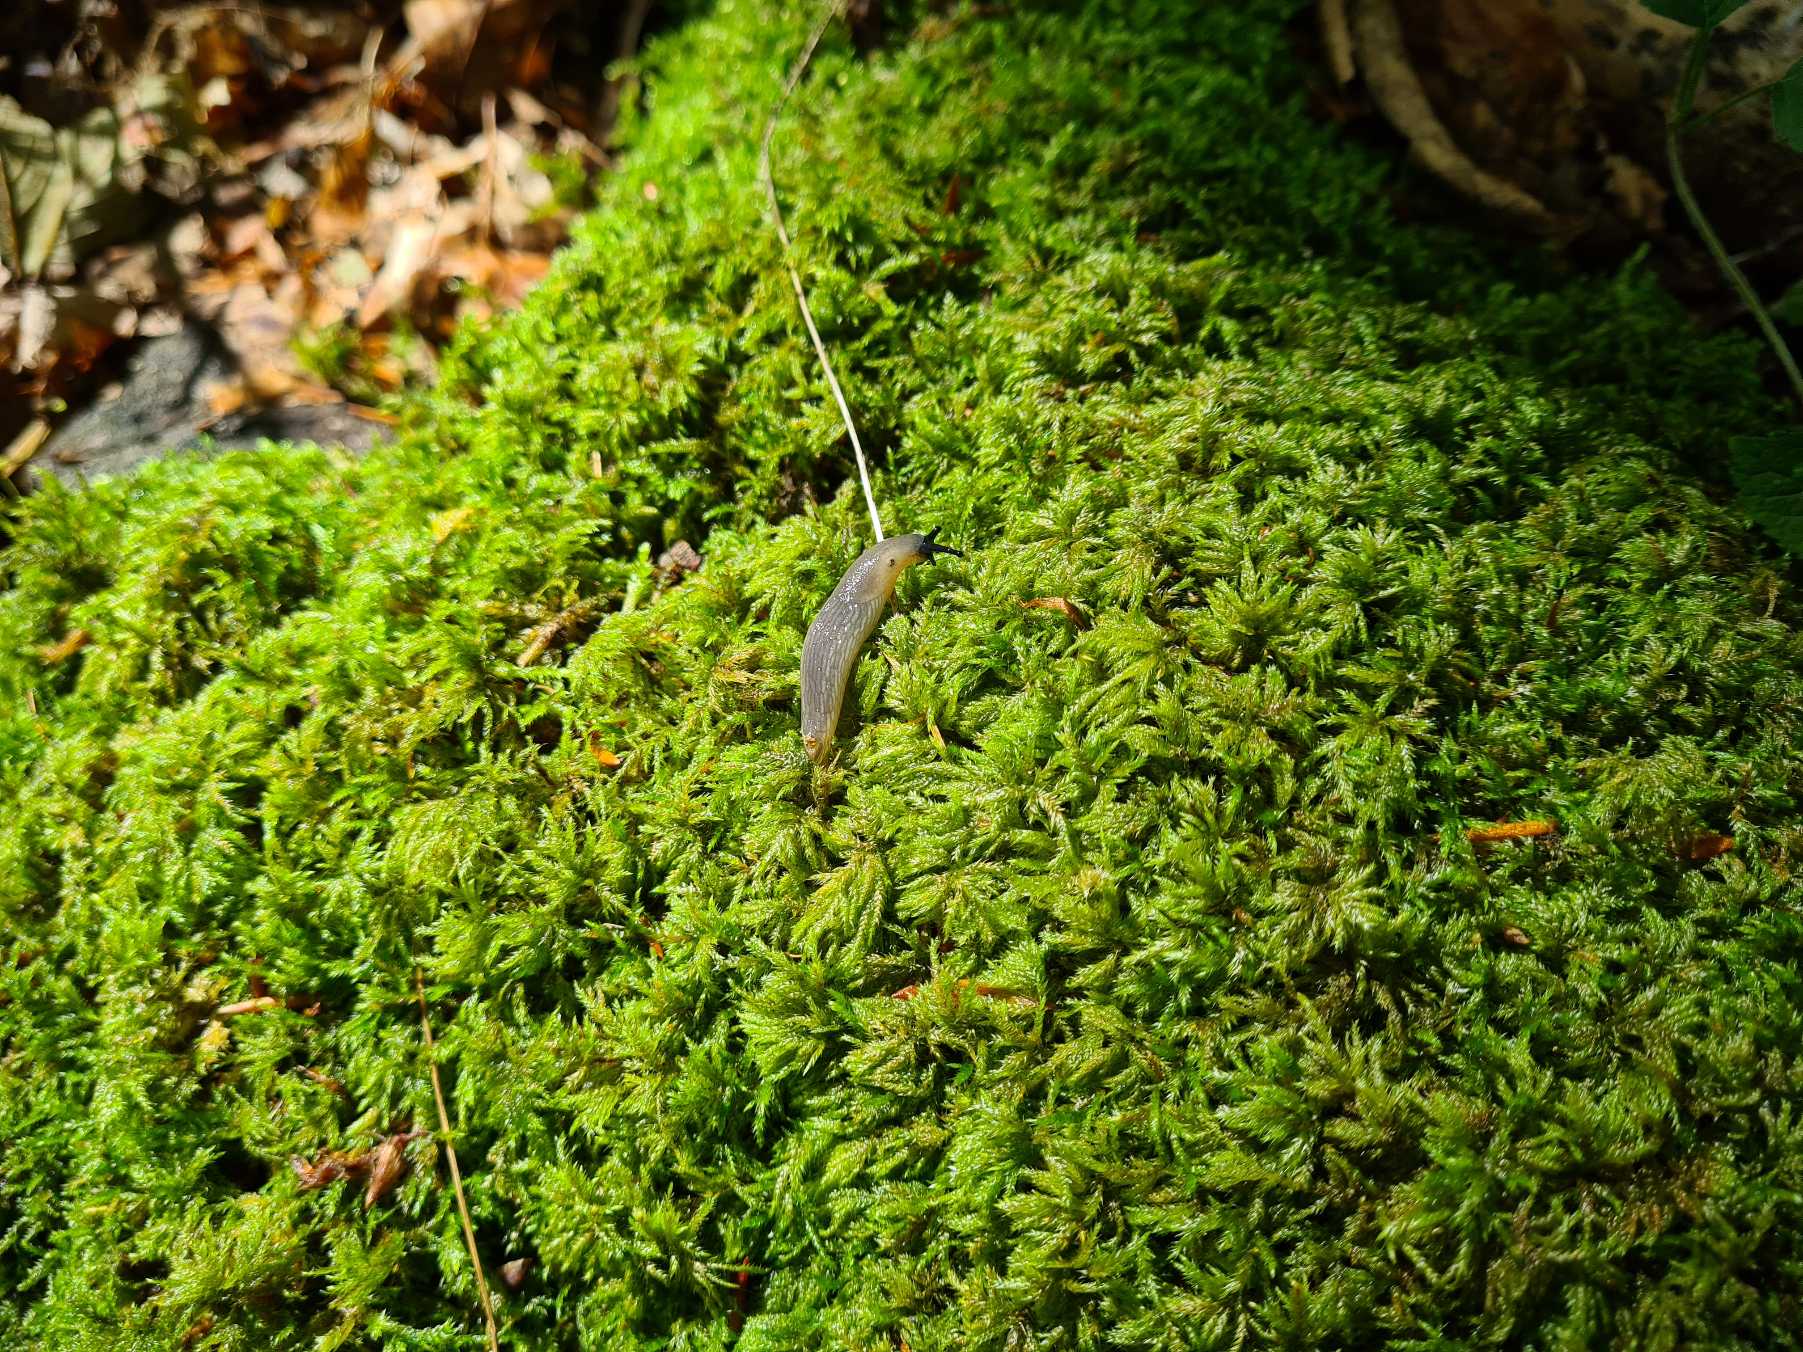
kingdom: Plantae
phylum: Bryophyta
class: Bryopsida
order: Hypnales
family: Lembophyllaceae
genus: Pseudisothecium
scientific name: Pseudisothecium myosuroides
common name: Slank stammemos
